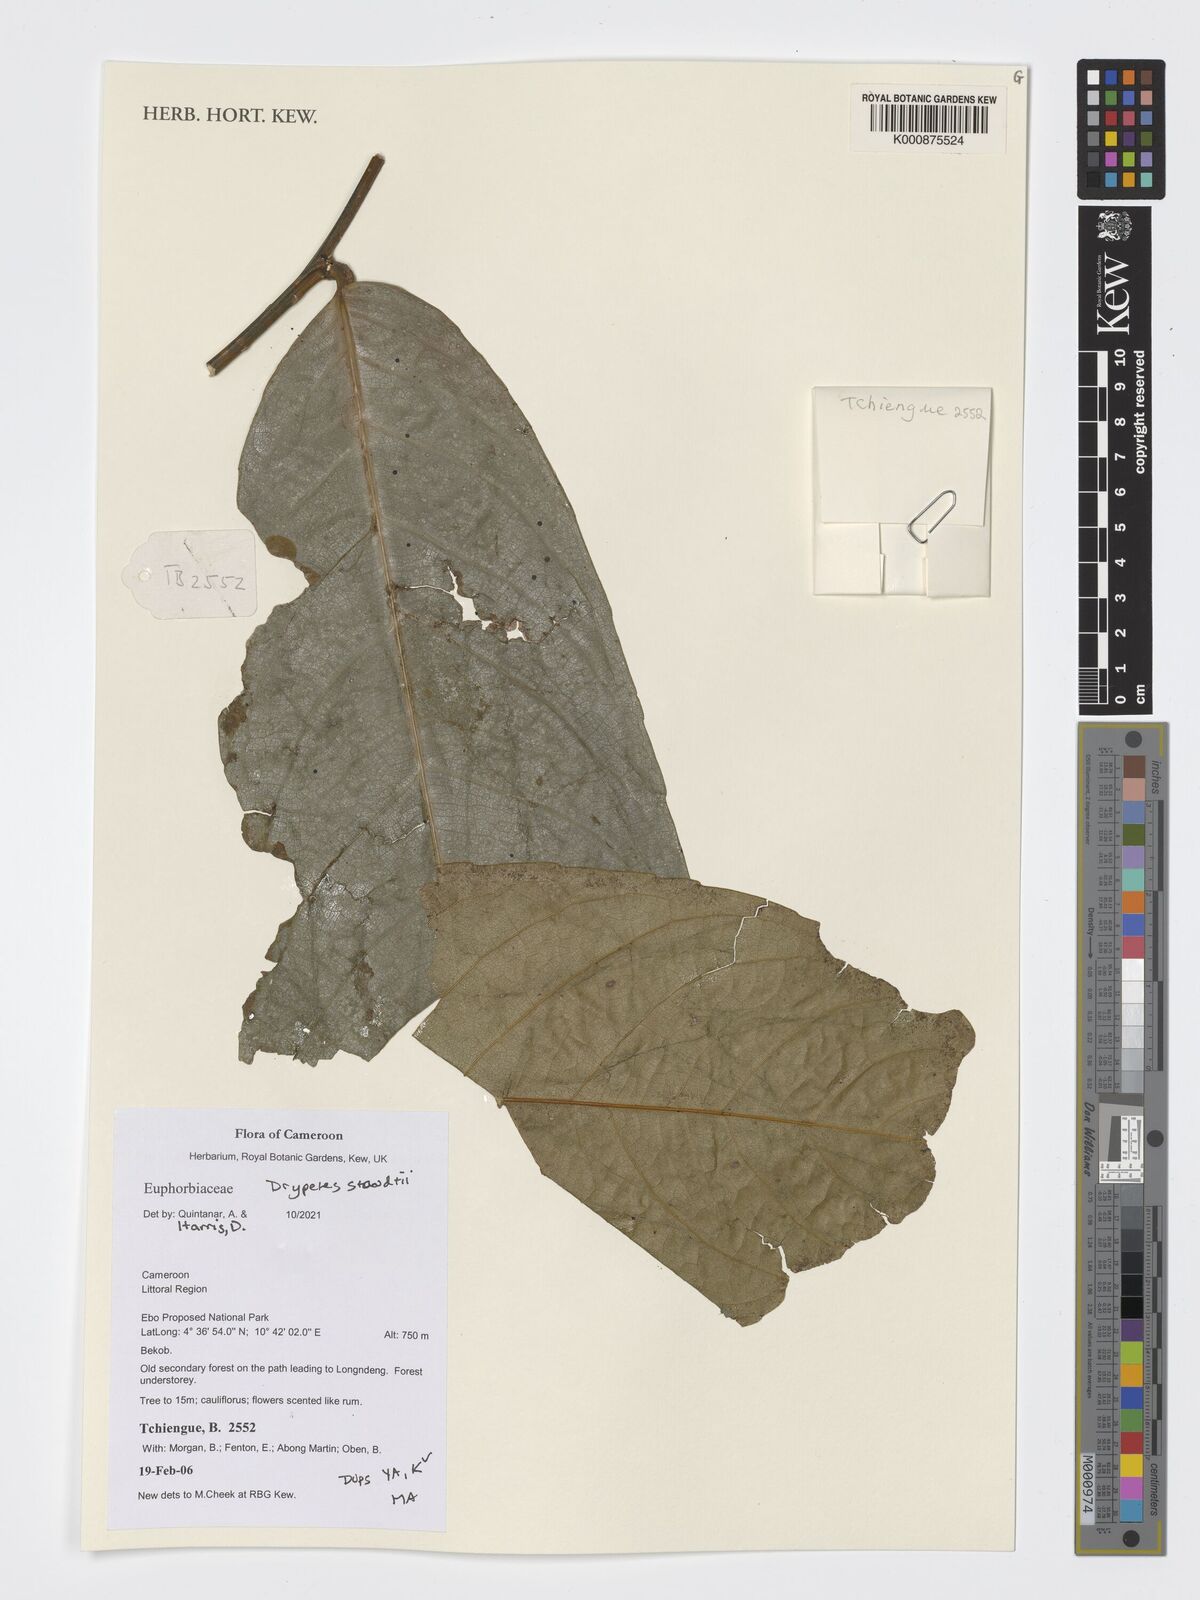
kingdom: Plantae
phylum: Tracheophyta
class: Magnoliopsida
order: Malpighiales
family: Putranjivaceae
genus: Drypetes
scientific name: Drypetes staudtii
